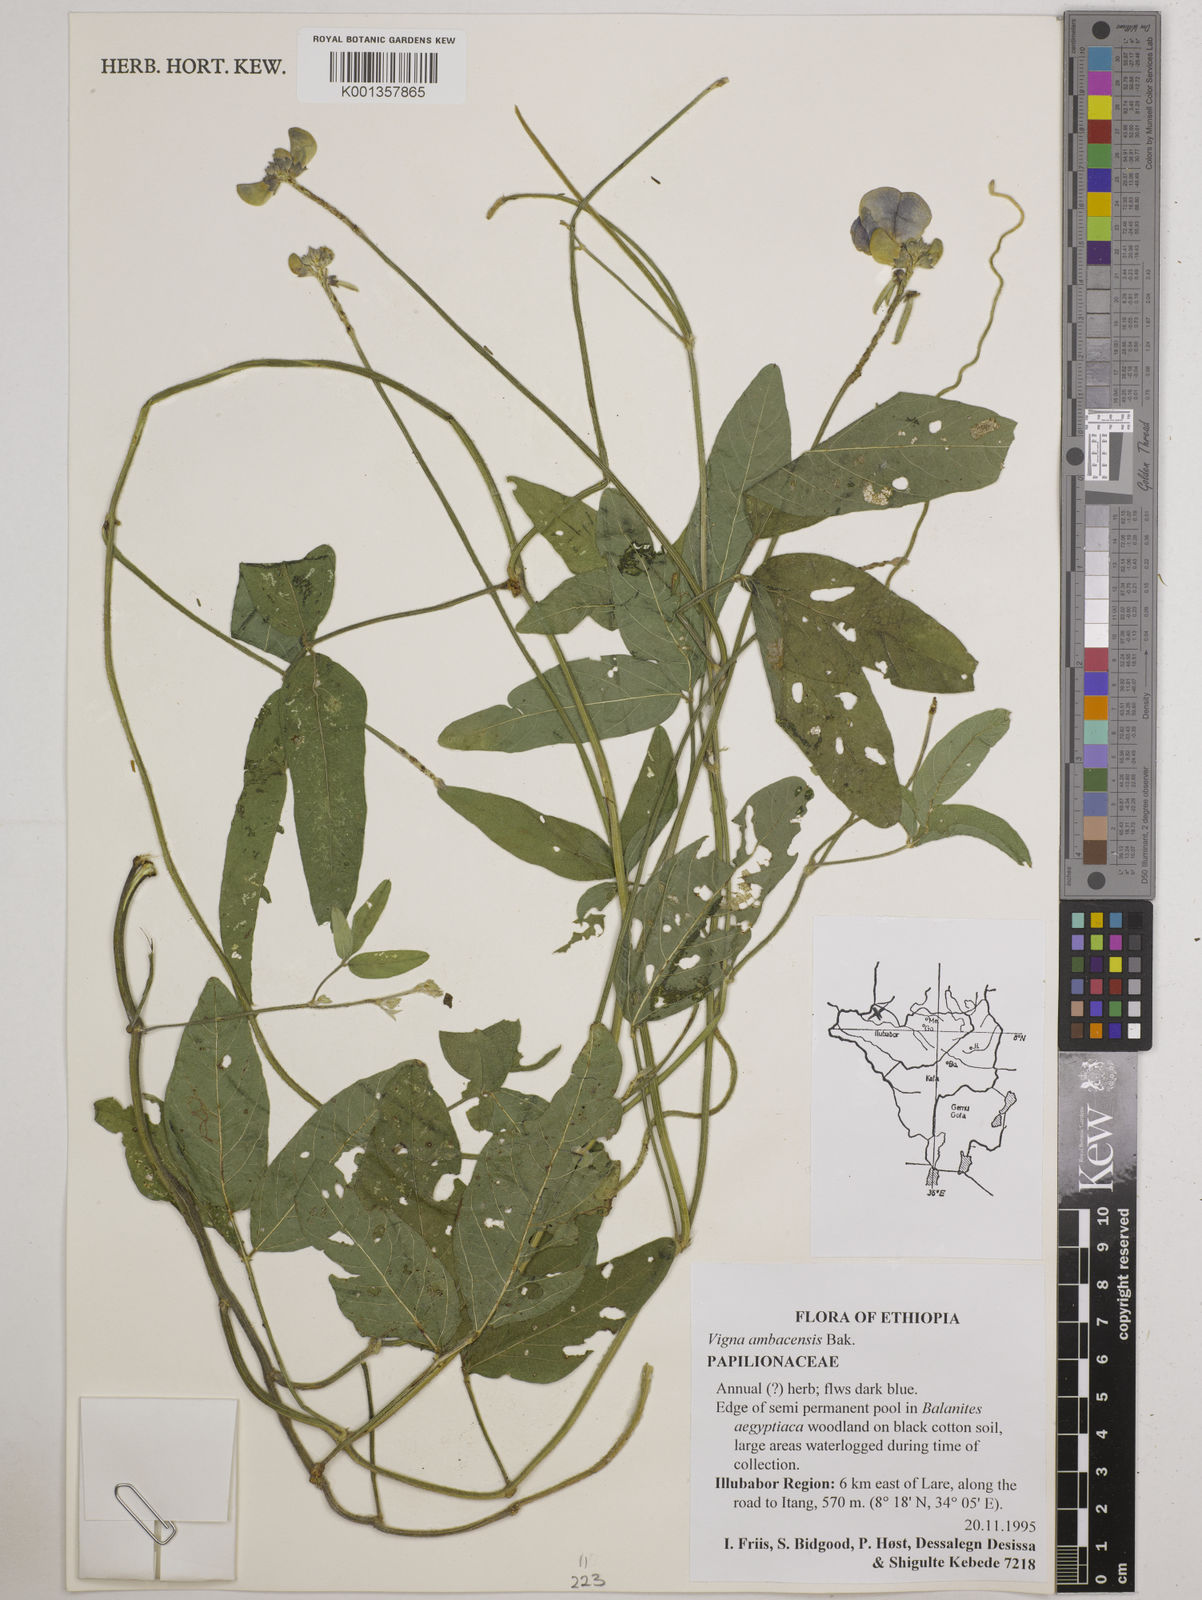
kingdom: Plantae
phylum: Tracheophyta
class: Magnoliopsida
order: Fabales
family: Fabaceae
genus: Vigna
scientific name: Vigna ambacensis
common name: Tsarkiyan zomo
